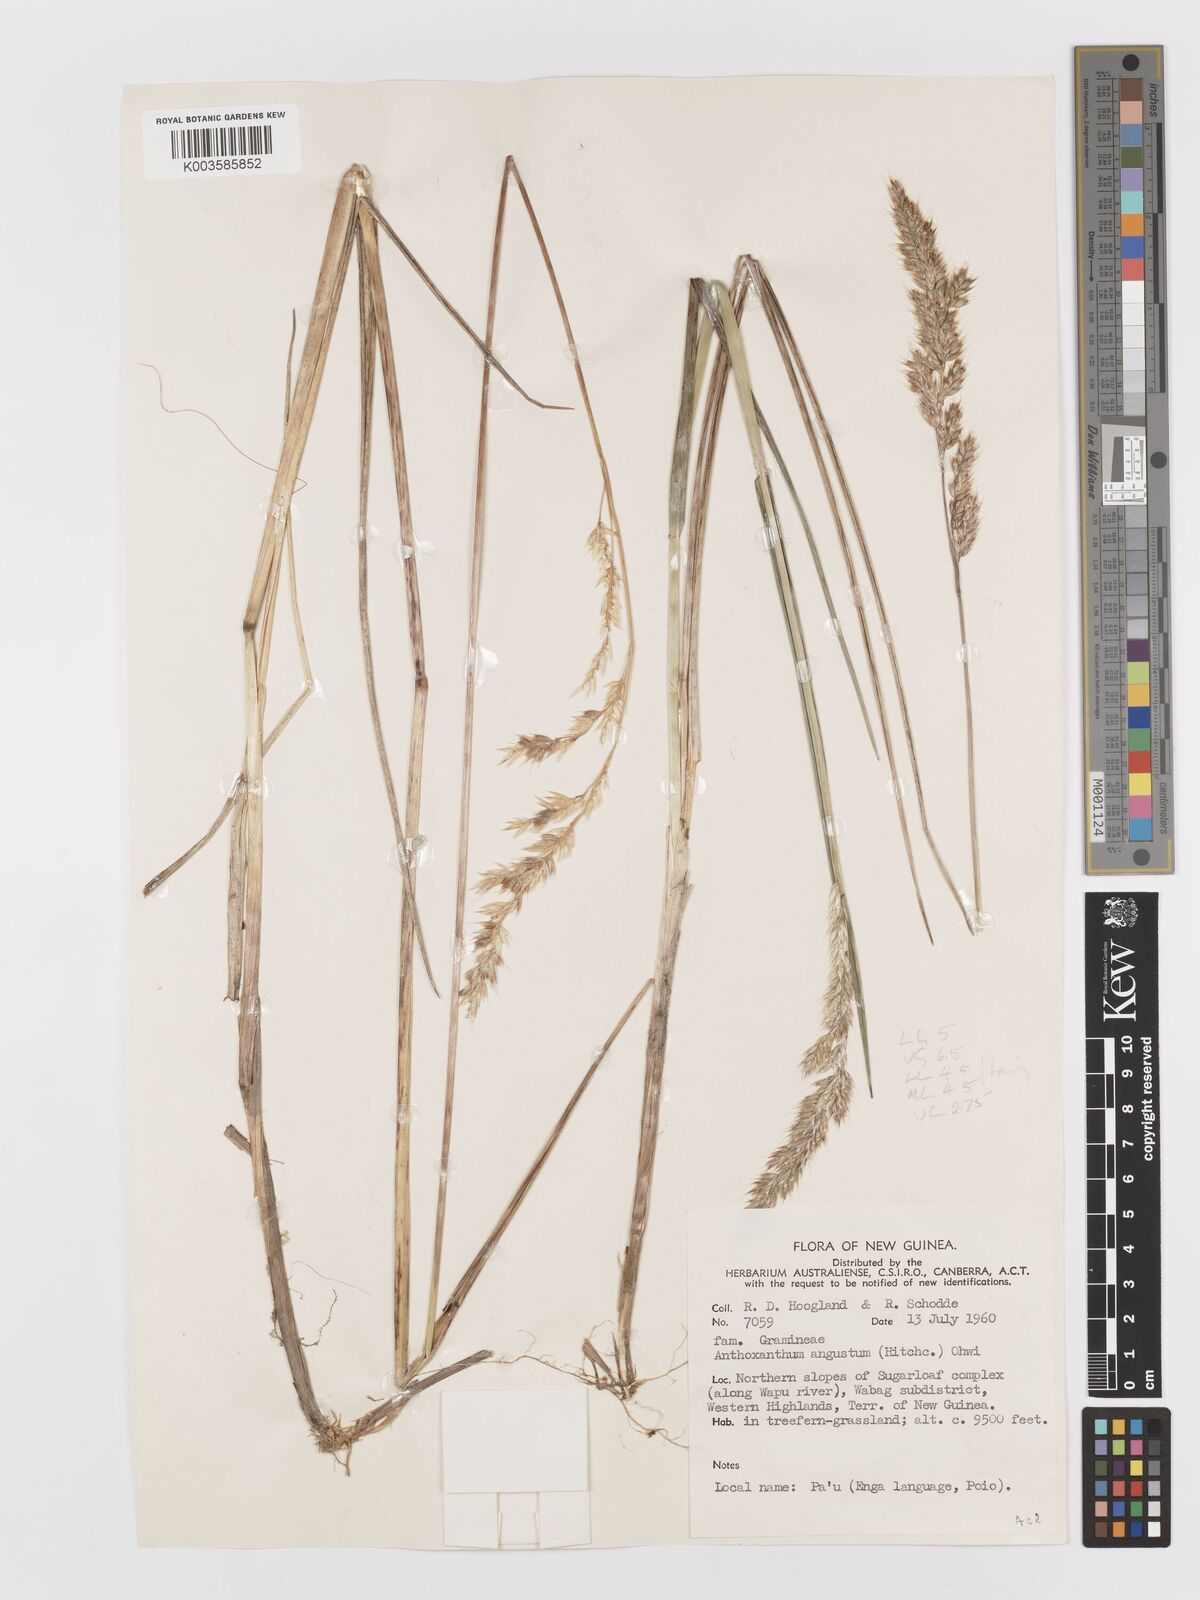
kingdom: Plantae
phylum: Tracheophyta
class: Liliopsida
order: Poales
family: Poaceae
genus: Anthoxanthum
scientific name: Anthoxanthum redolens
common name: Sweet holy grass
